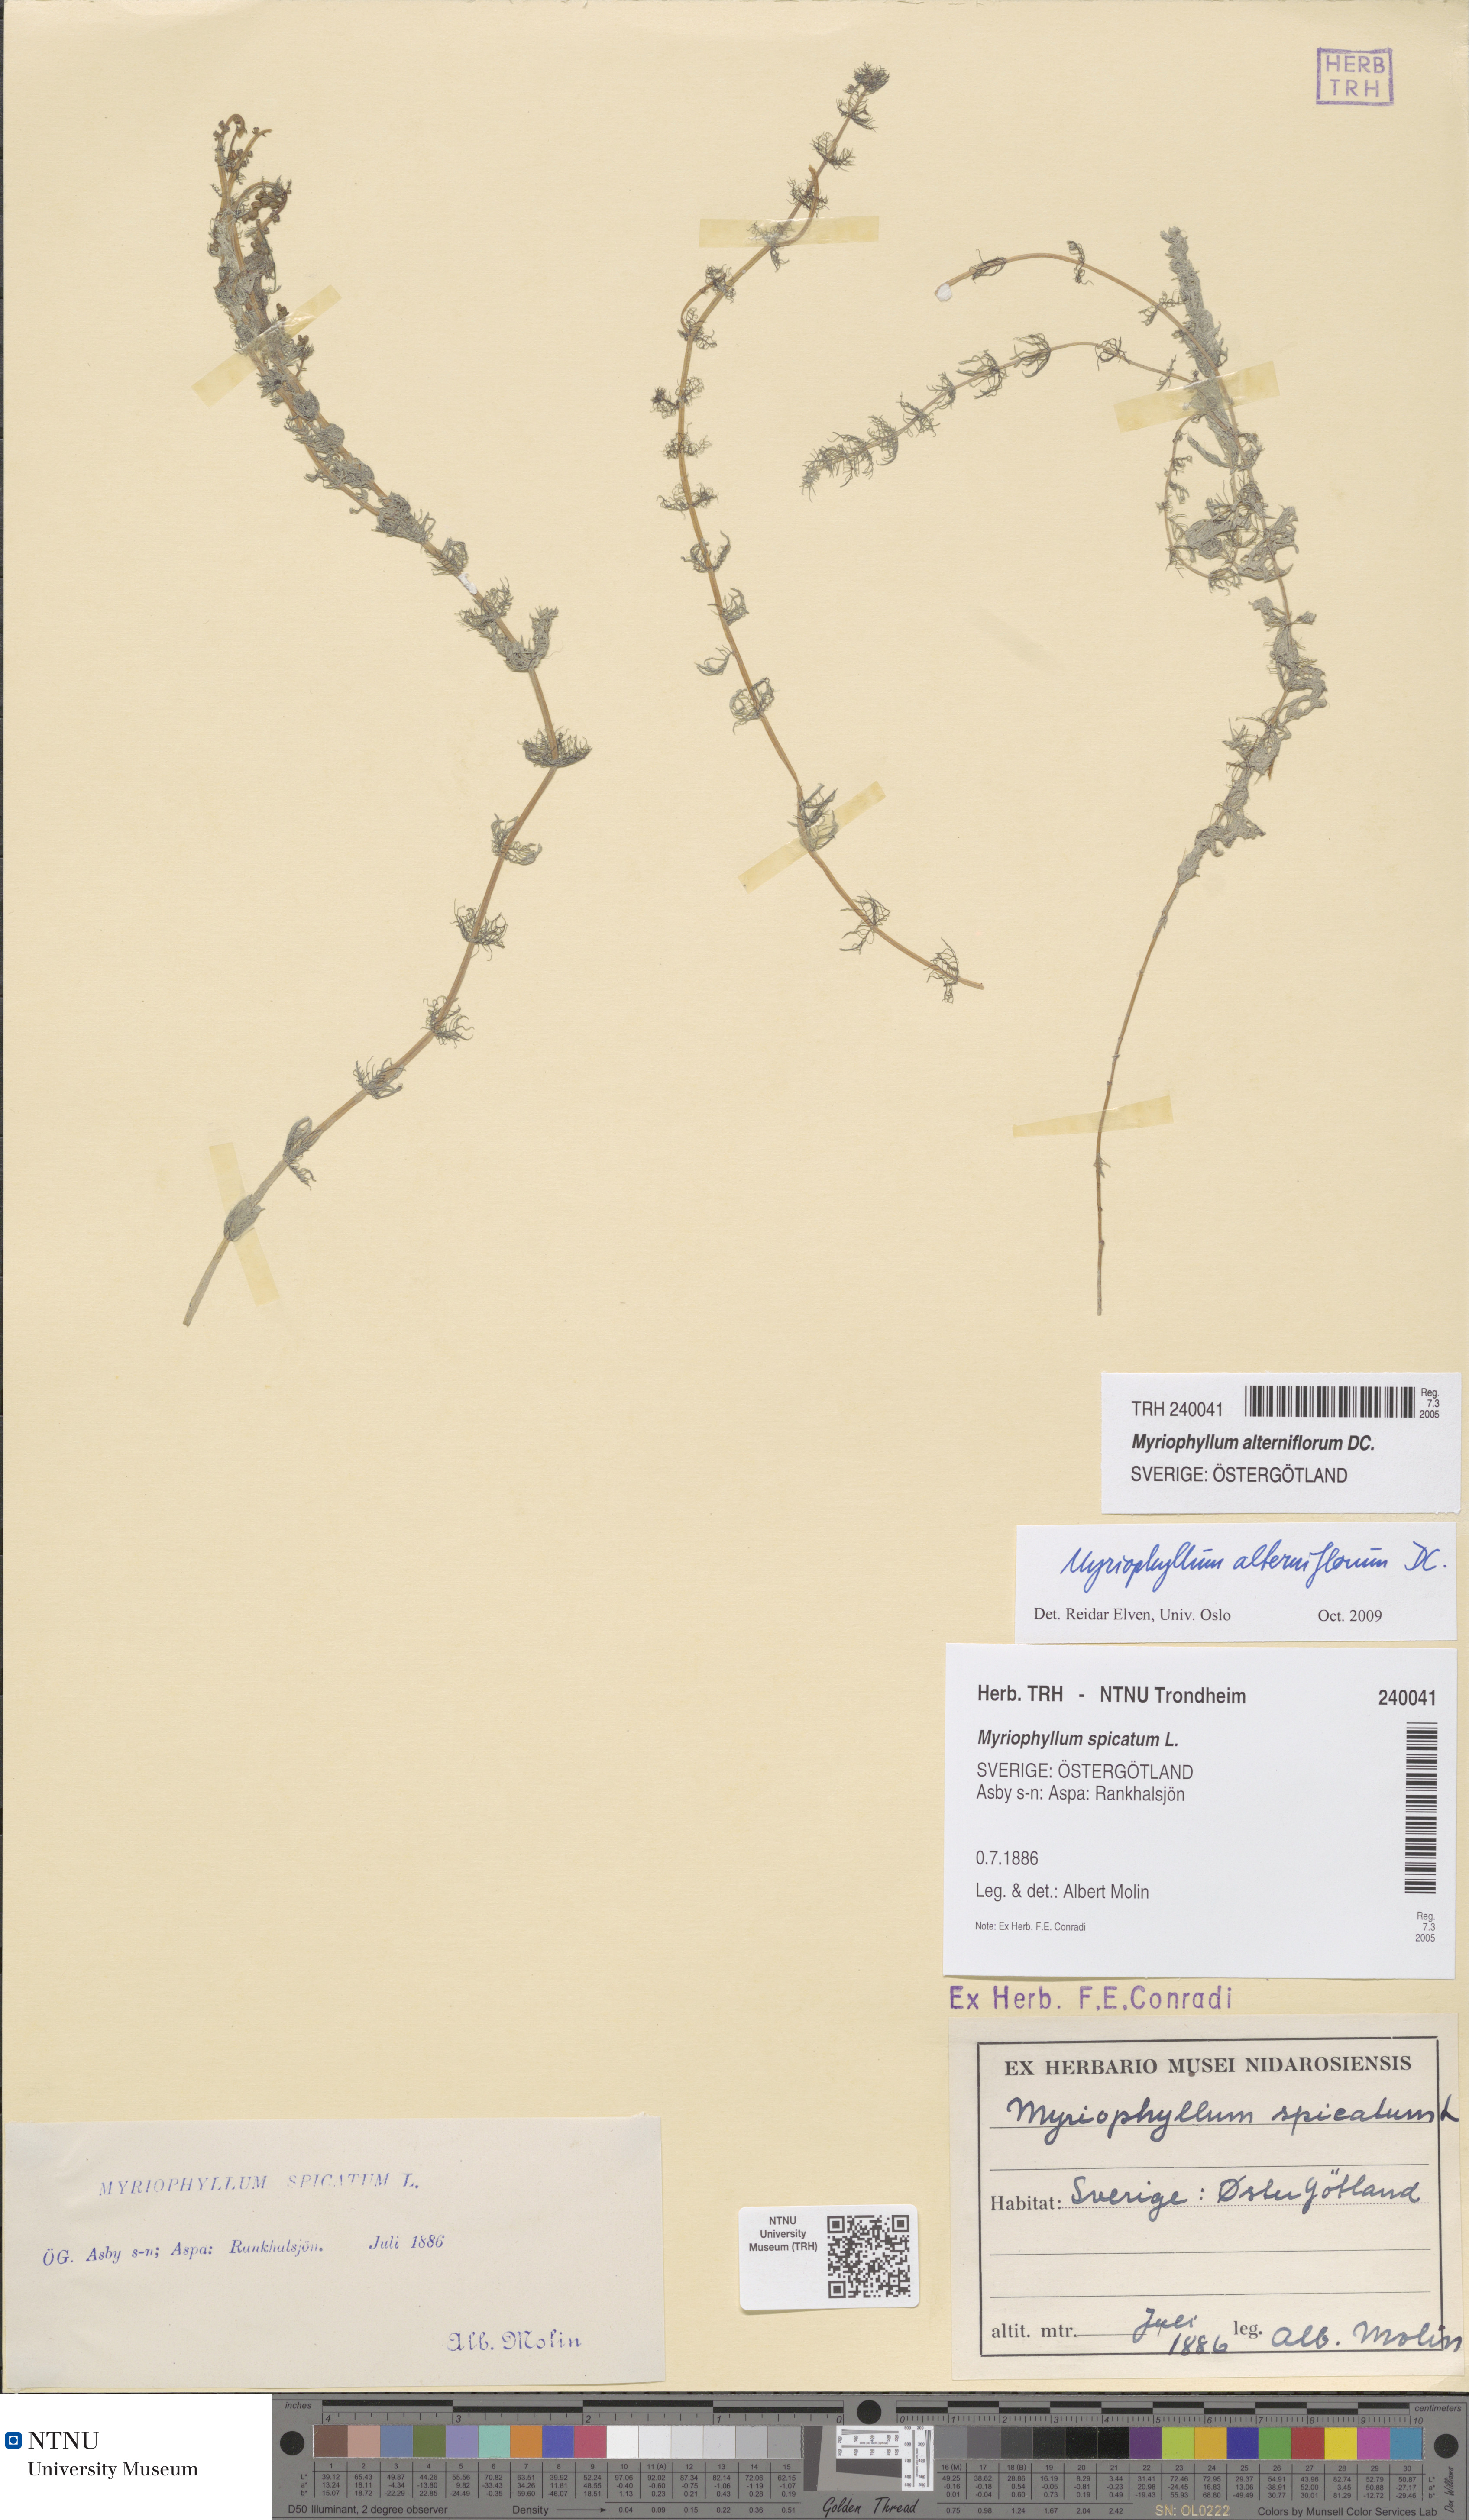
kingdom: Plantae
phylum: Tracheophyta
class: Magnoliopsida
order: Saxifragales
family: Haloragaceae
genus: Myriophyllum
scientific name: Myriophyllum alterniflorum
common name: Alternate water-milfoil
